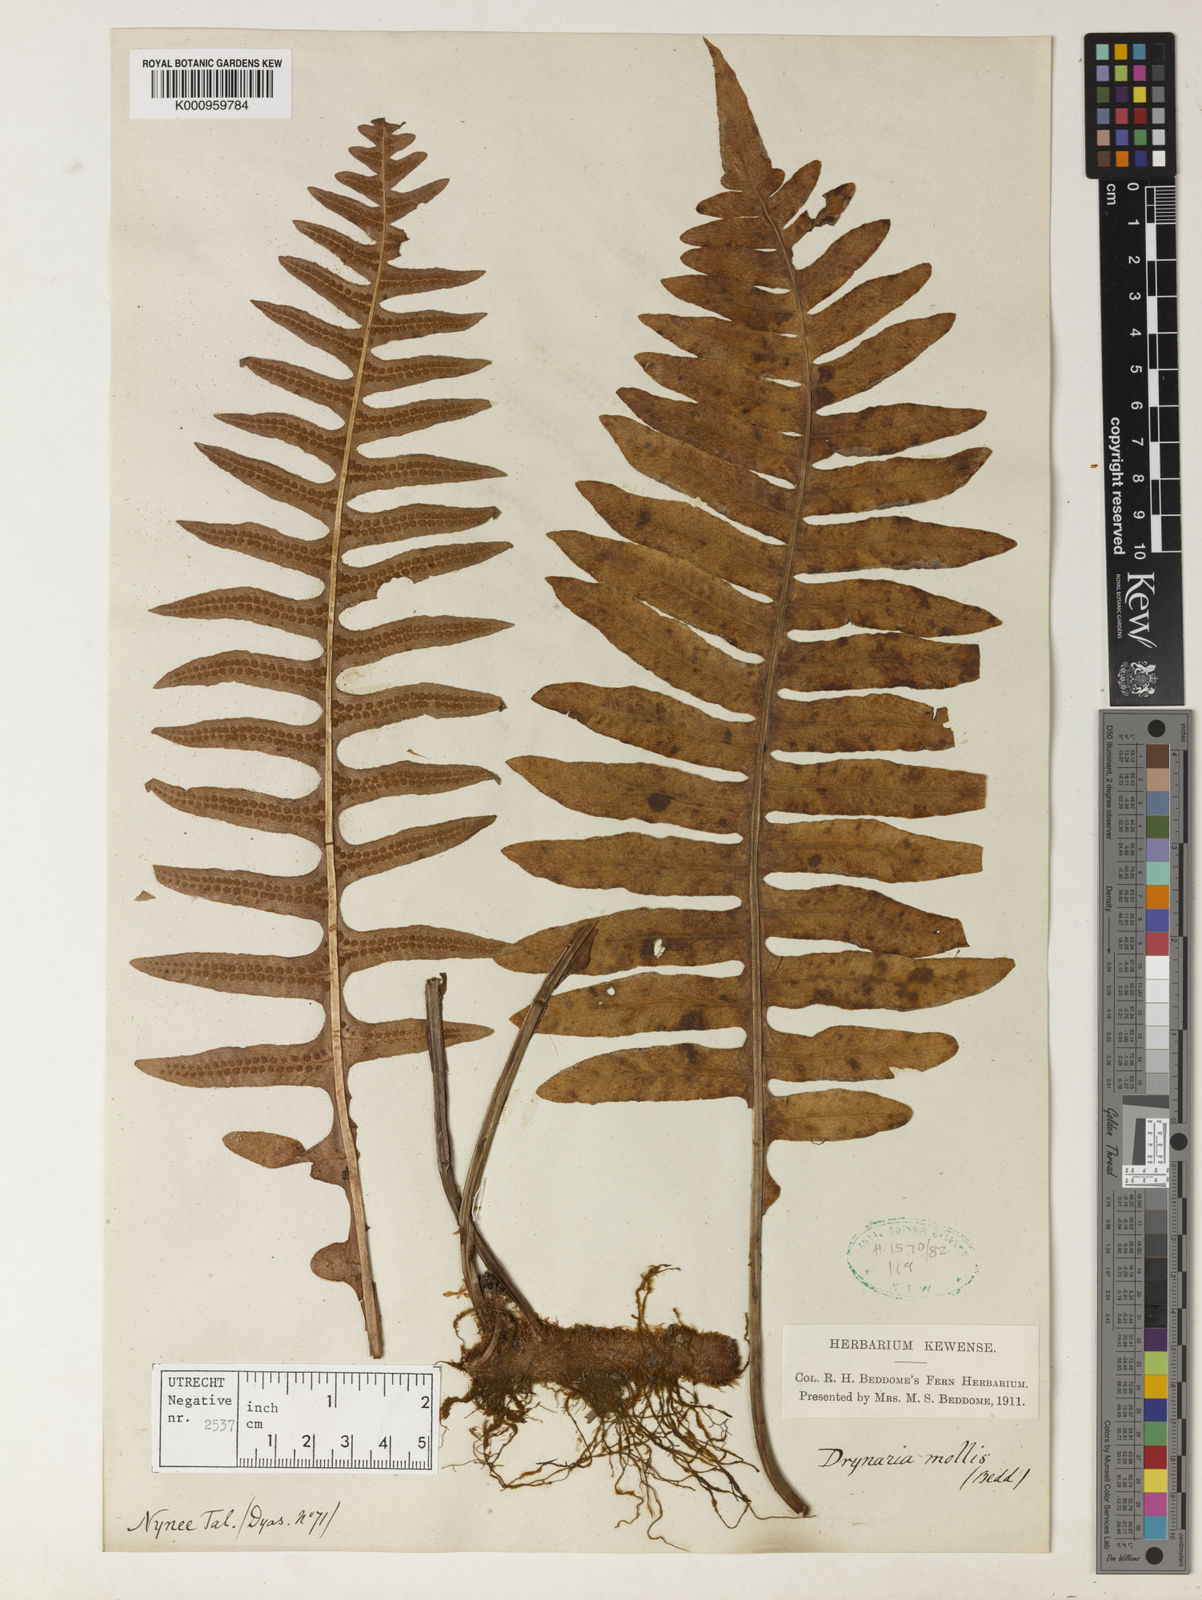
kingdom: Plantae
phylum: Tracheophyta
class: Polypodiopsida
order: Polypodiales
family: Polypodiaceae
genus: Drynaria
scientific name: Drynaria mollis
